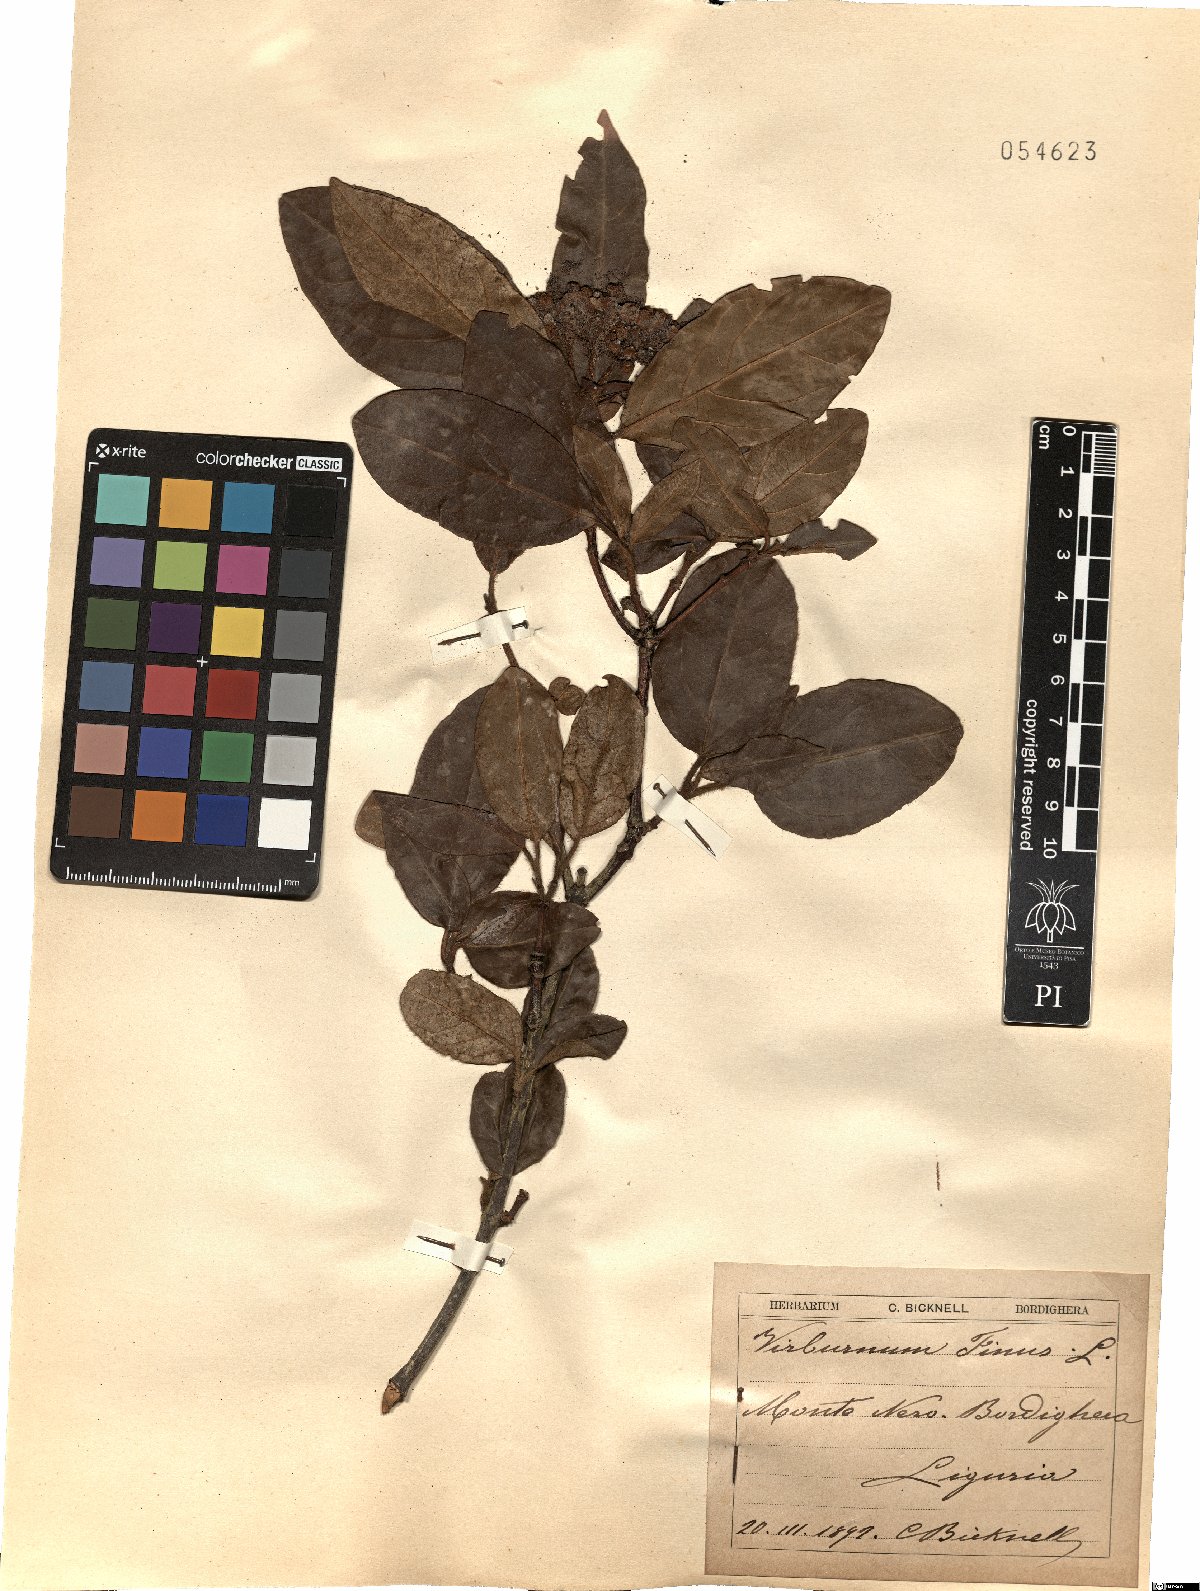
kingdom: Plantae
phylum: Tracheophyta
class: Magnoliopsida
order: Dipsacales
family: Viburnaceae
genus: Viburnum
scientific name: Viburnum tinus
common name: Laurustinus
